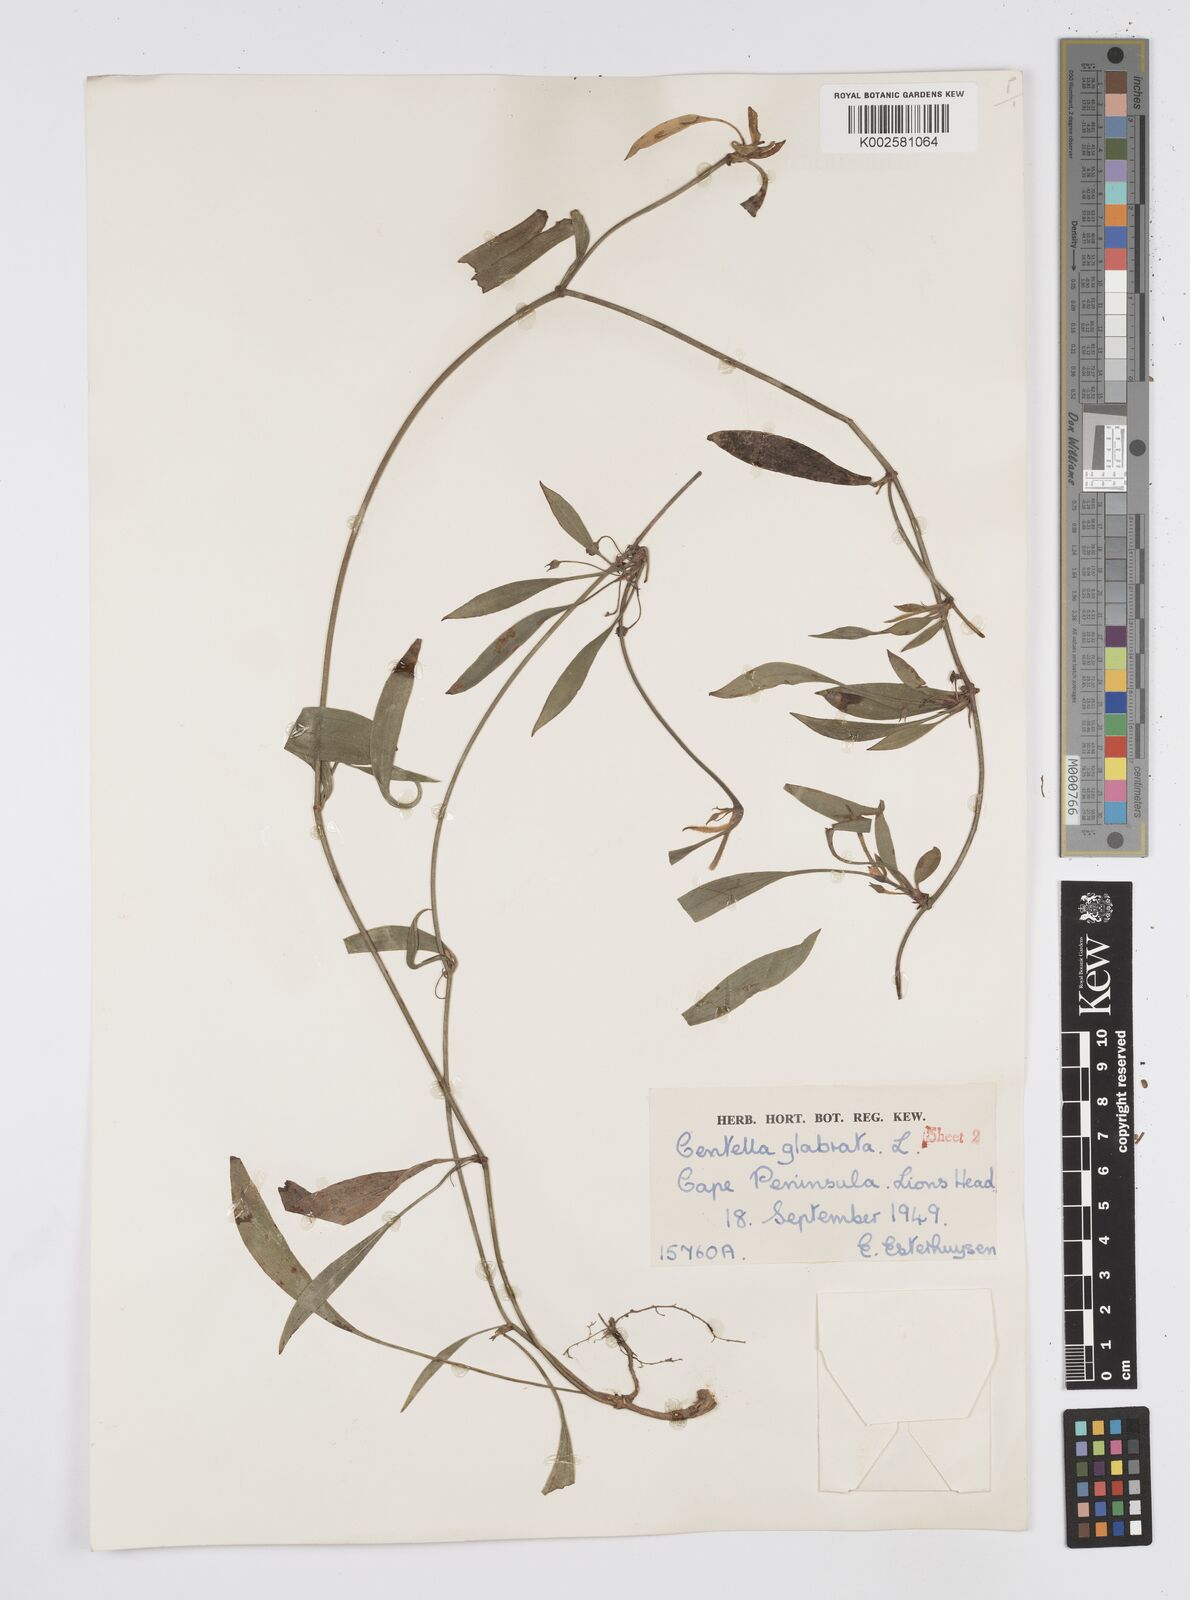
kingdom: Plantae
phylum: Tracheophyta
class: Magnoliopsida
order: Apiales
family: Apiaceae
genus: Centella
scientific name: Centella glabrata
